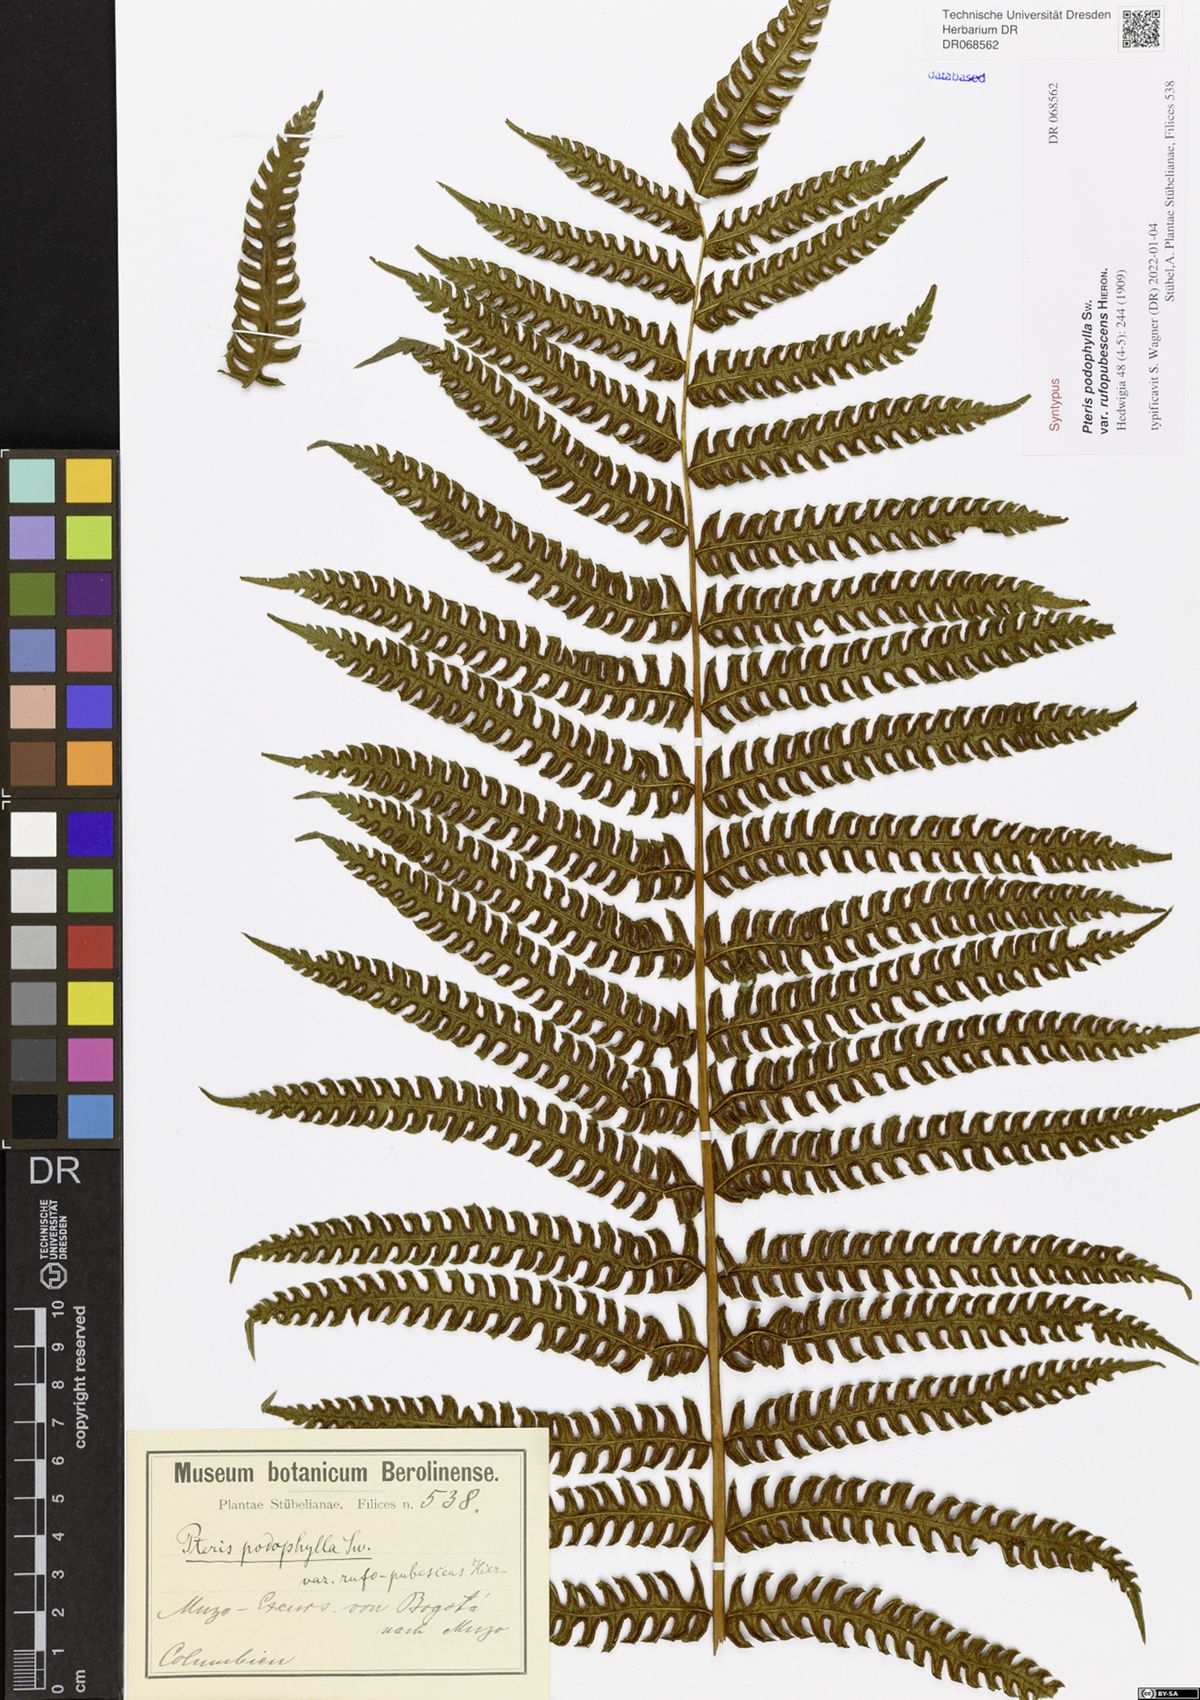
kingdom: Plantae
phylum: Tracheophyta
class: Polypodiopsida
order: Polypodiales
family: Pteridaceae
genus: Pteris
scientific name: Pteris podophylla
